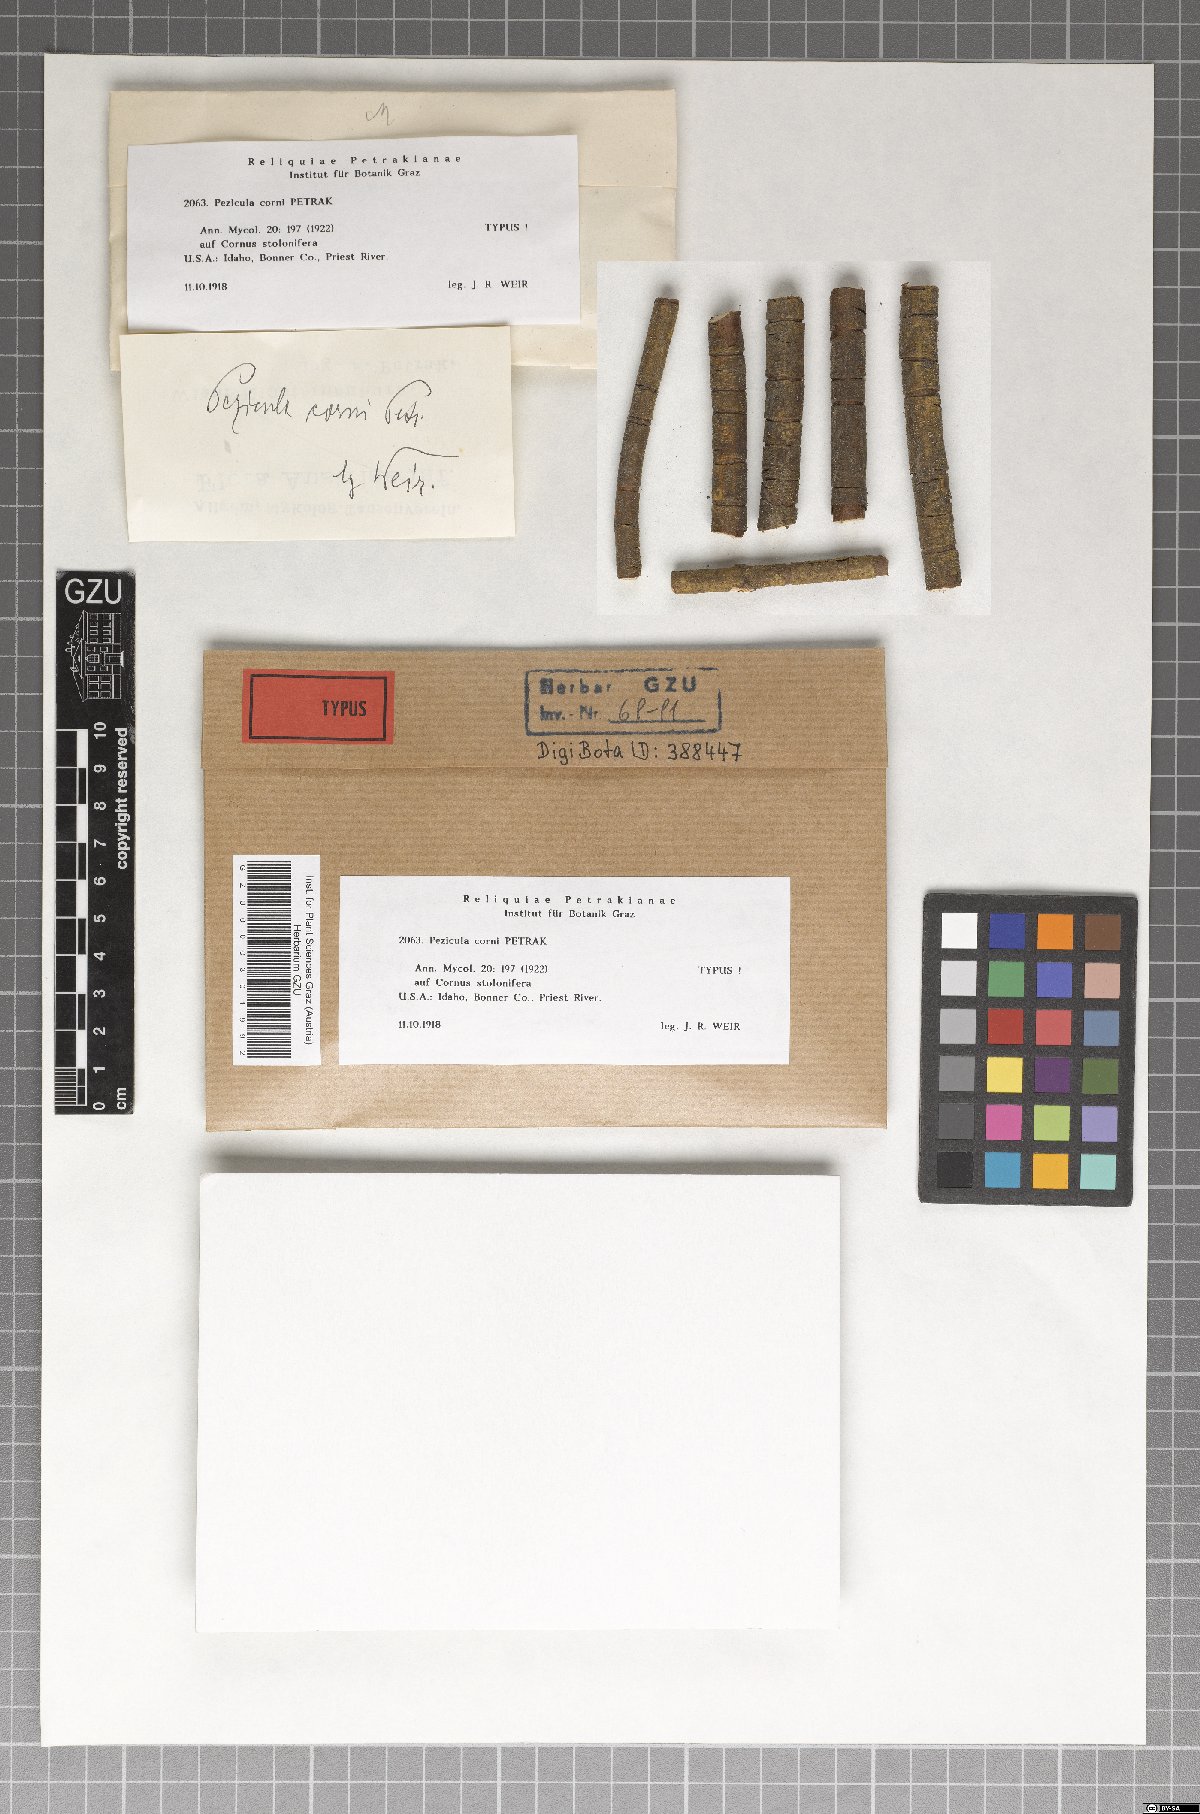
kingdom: Fungi
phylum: Ascomycota
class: Leotiomycetes
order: Helotiales
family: Dermateaceae
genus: Pezicula
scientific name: Pezicula corni
